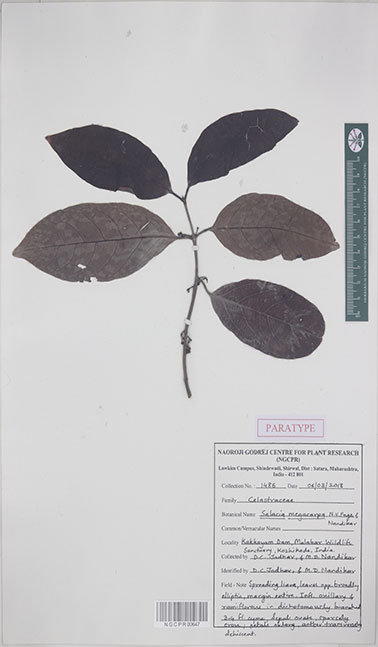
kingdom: Plantae
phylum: Tracheophyta
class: Magnoliopsida
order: Celastrales
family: Celastraceae
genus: Salacia
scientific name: Salacia megacarpa
